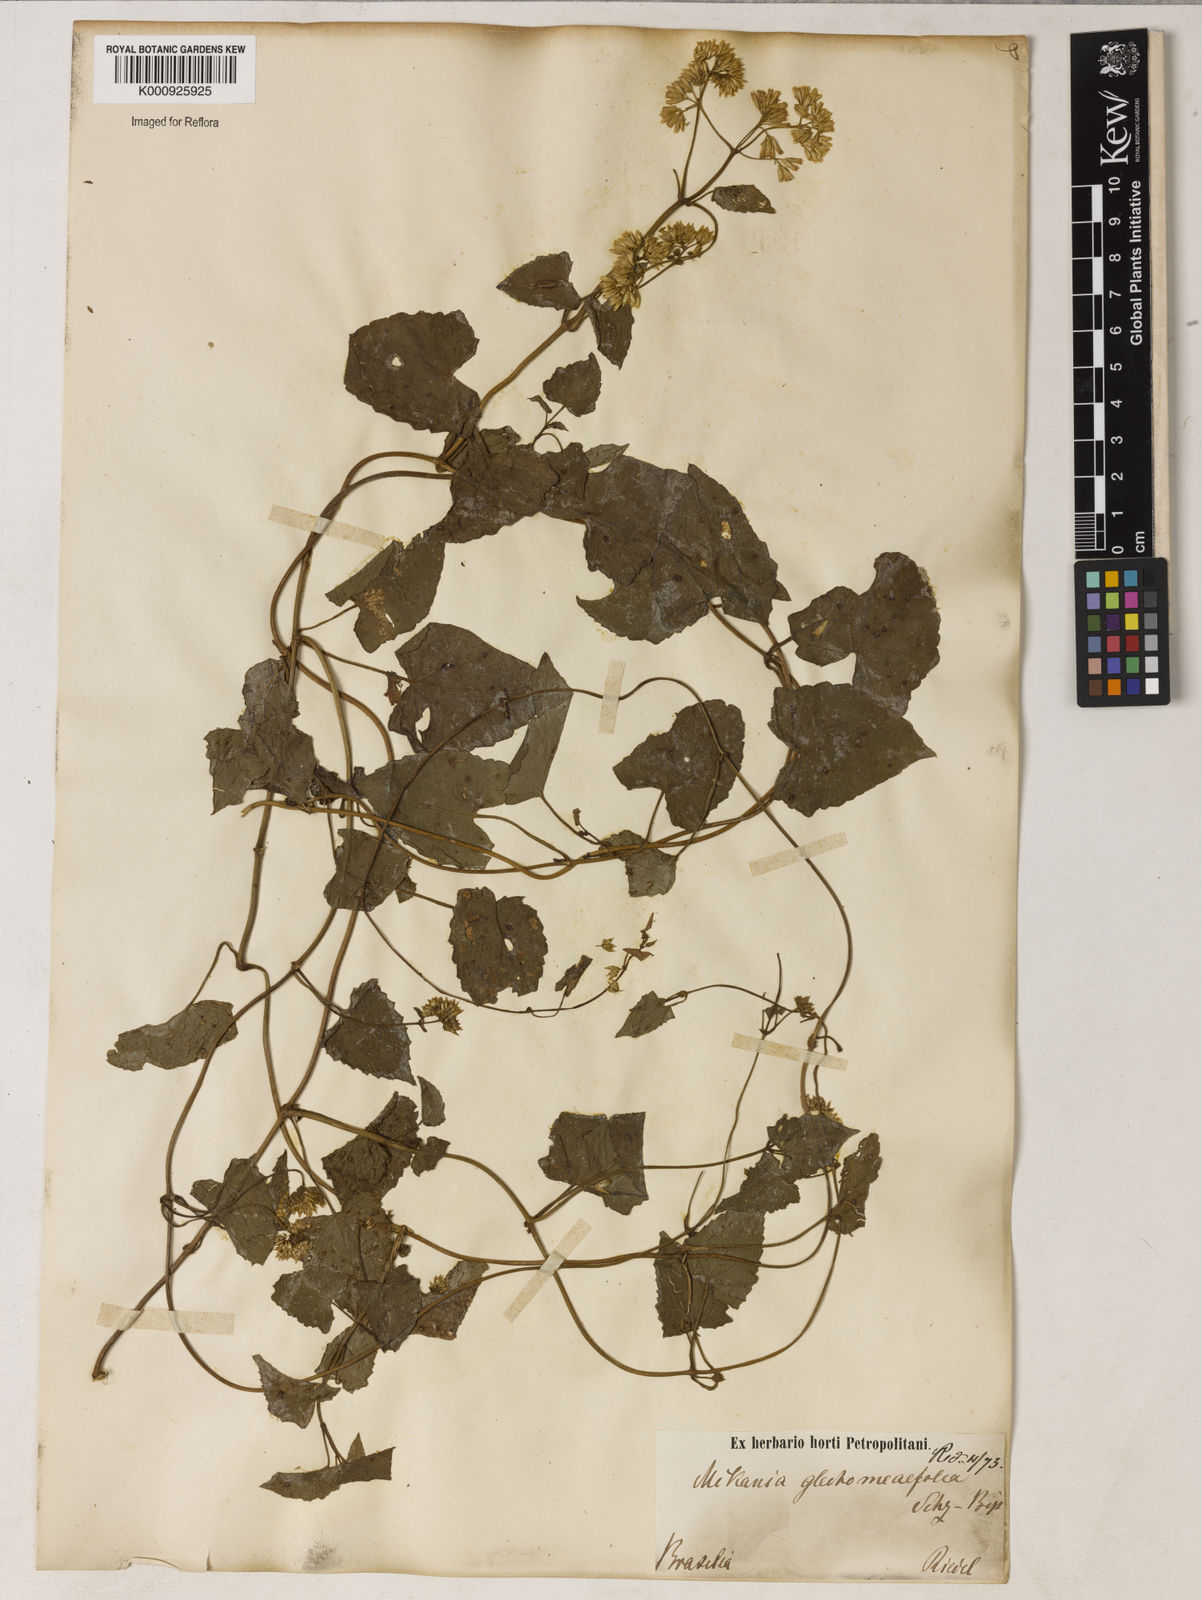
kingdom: Plantae
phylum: Tracheophyta
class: Magnoliopsida
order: Asterales
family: Asteraceae
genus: Mikania
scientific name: Mikania micrantha
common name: Mile-a-minute
